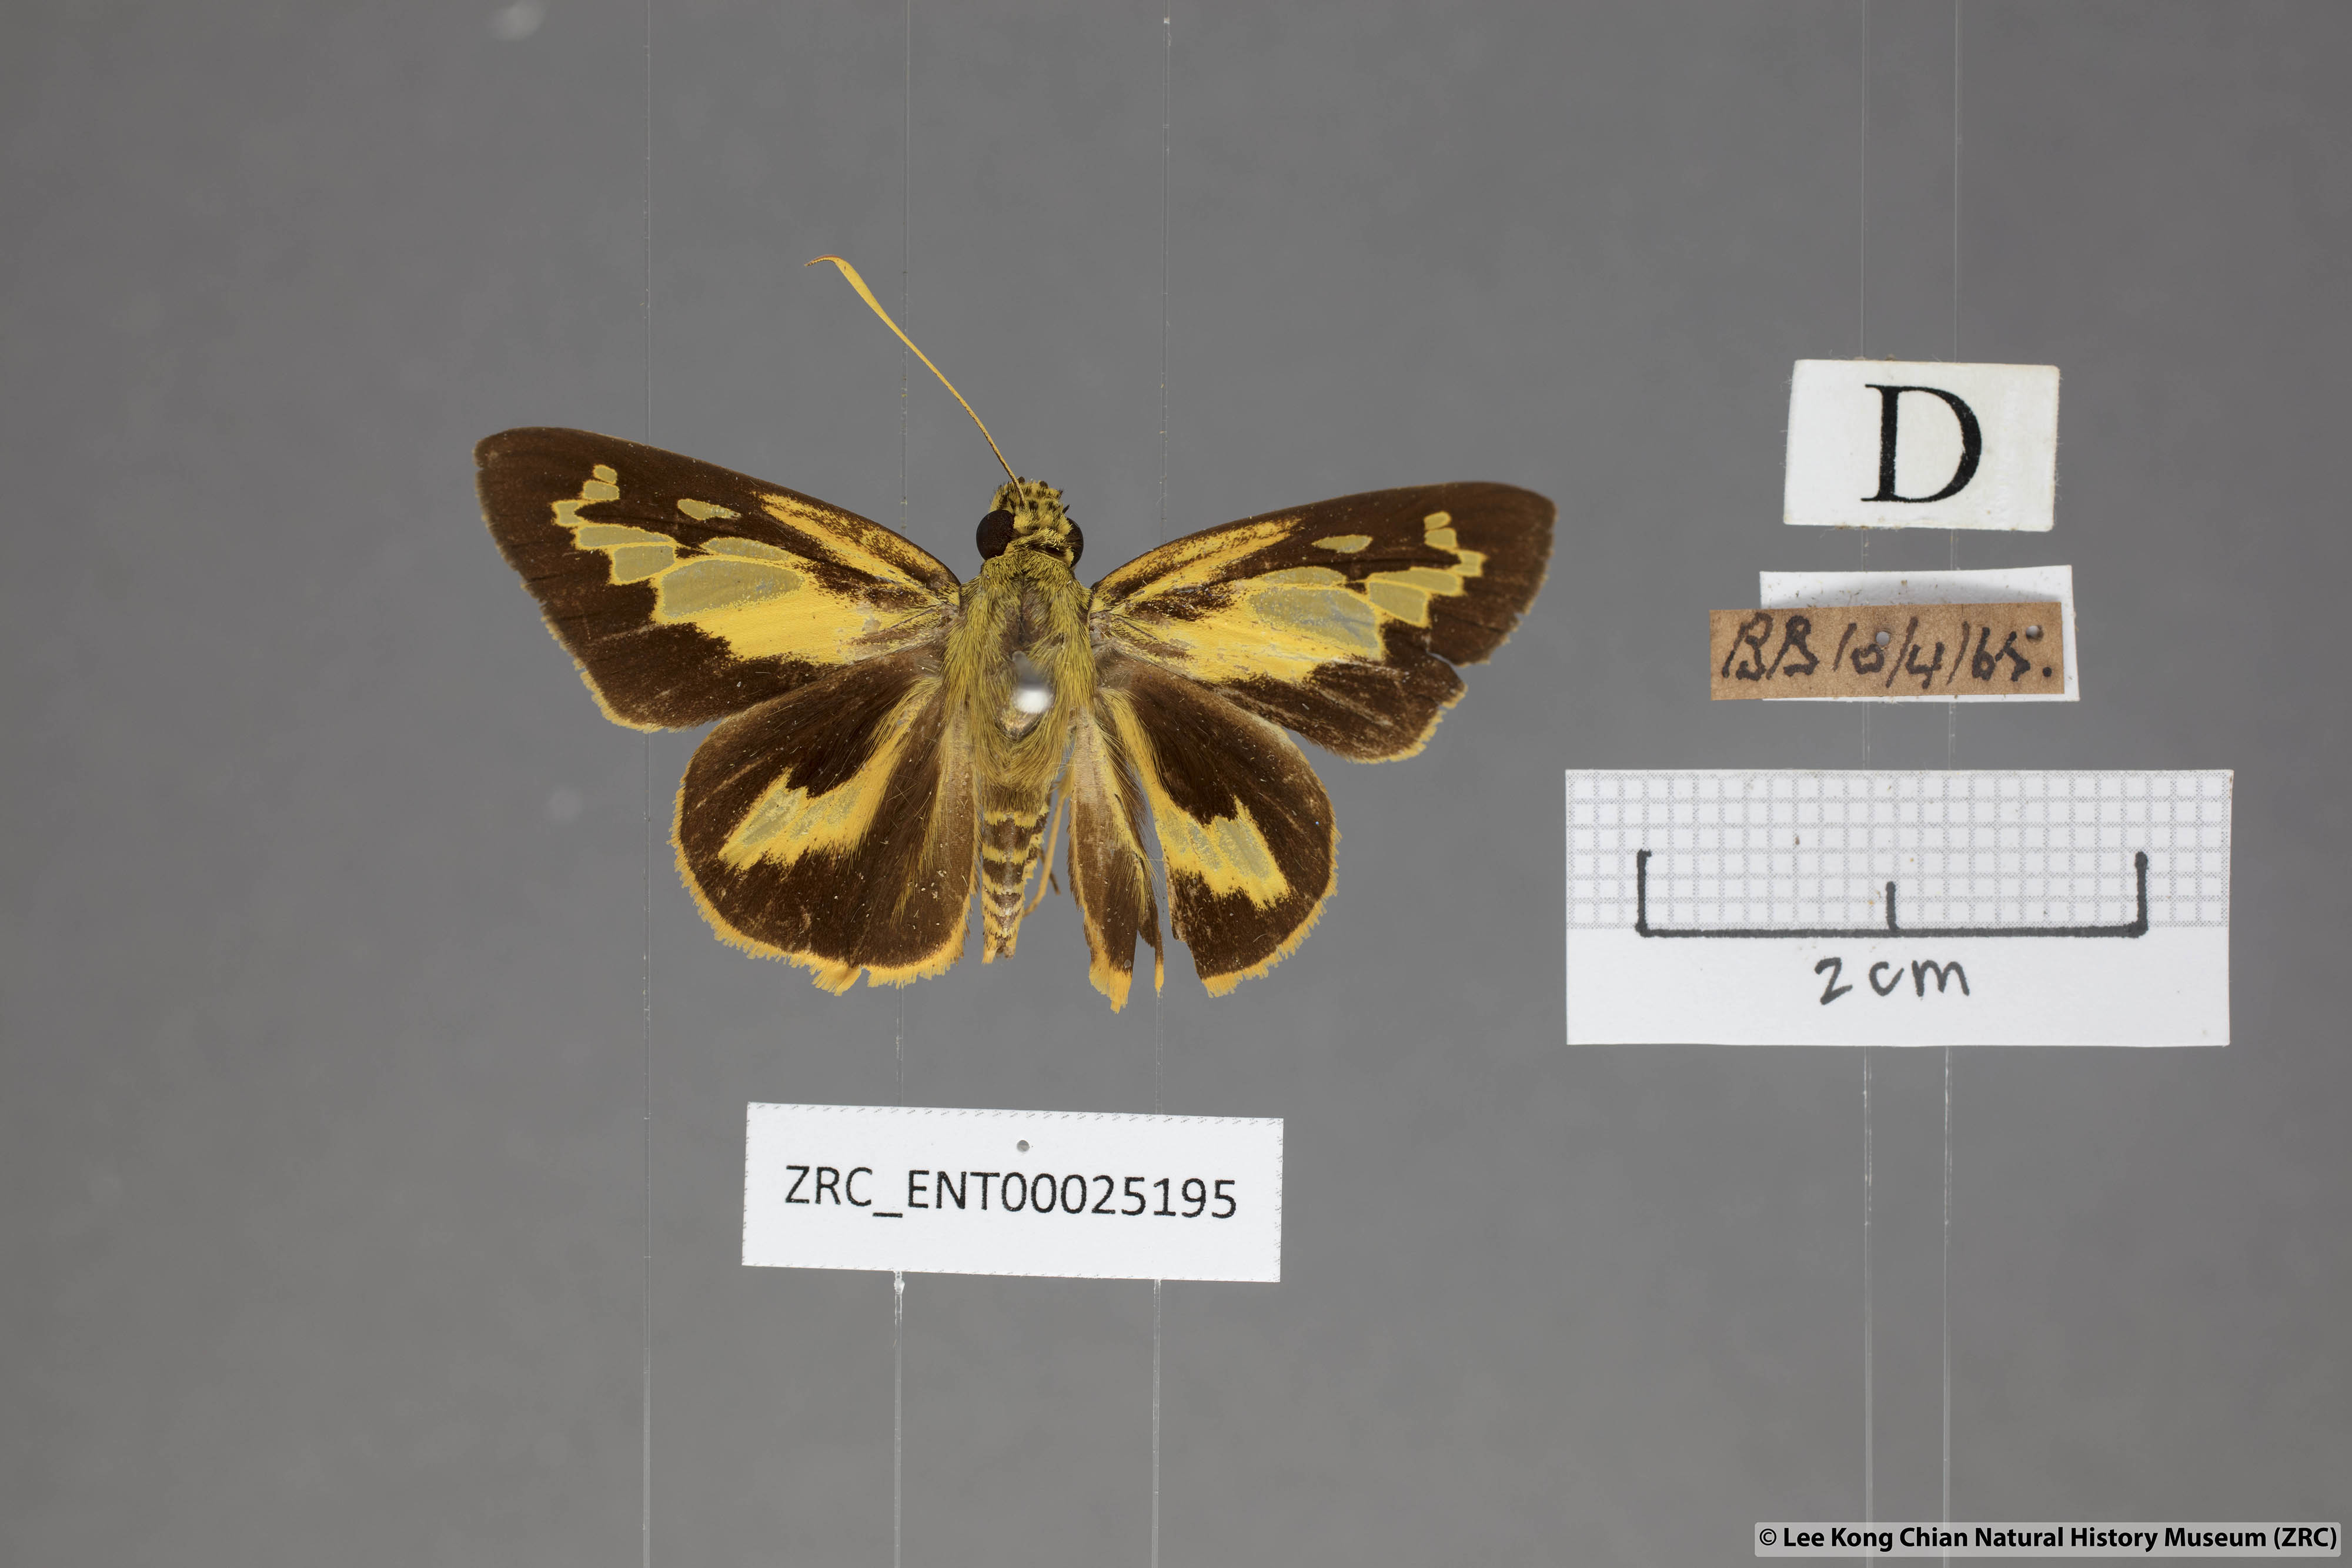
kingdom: Animalia
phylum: Arthropoda
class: Insecta
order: Lepidoptera
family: Hesperiidae
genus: Pyroneura
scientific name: Pyroneura
